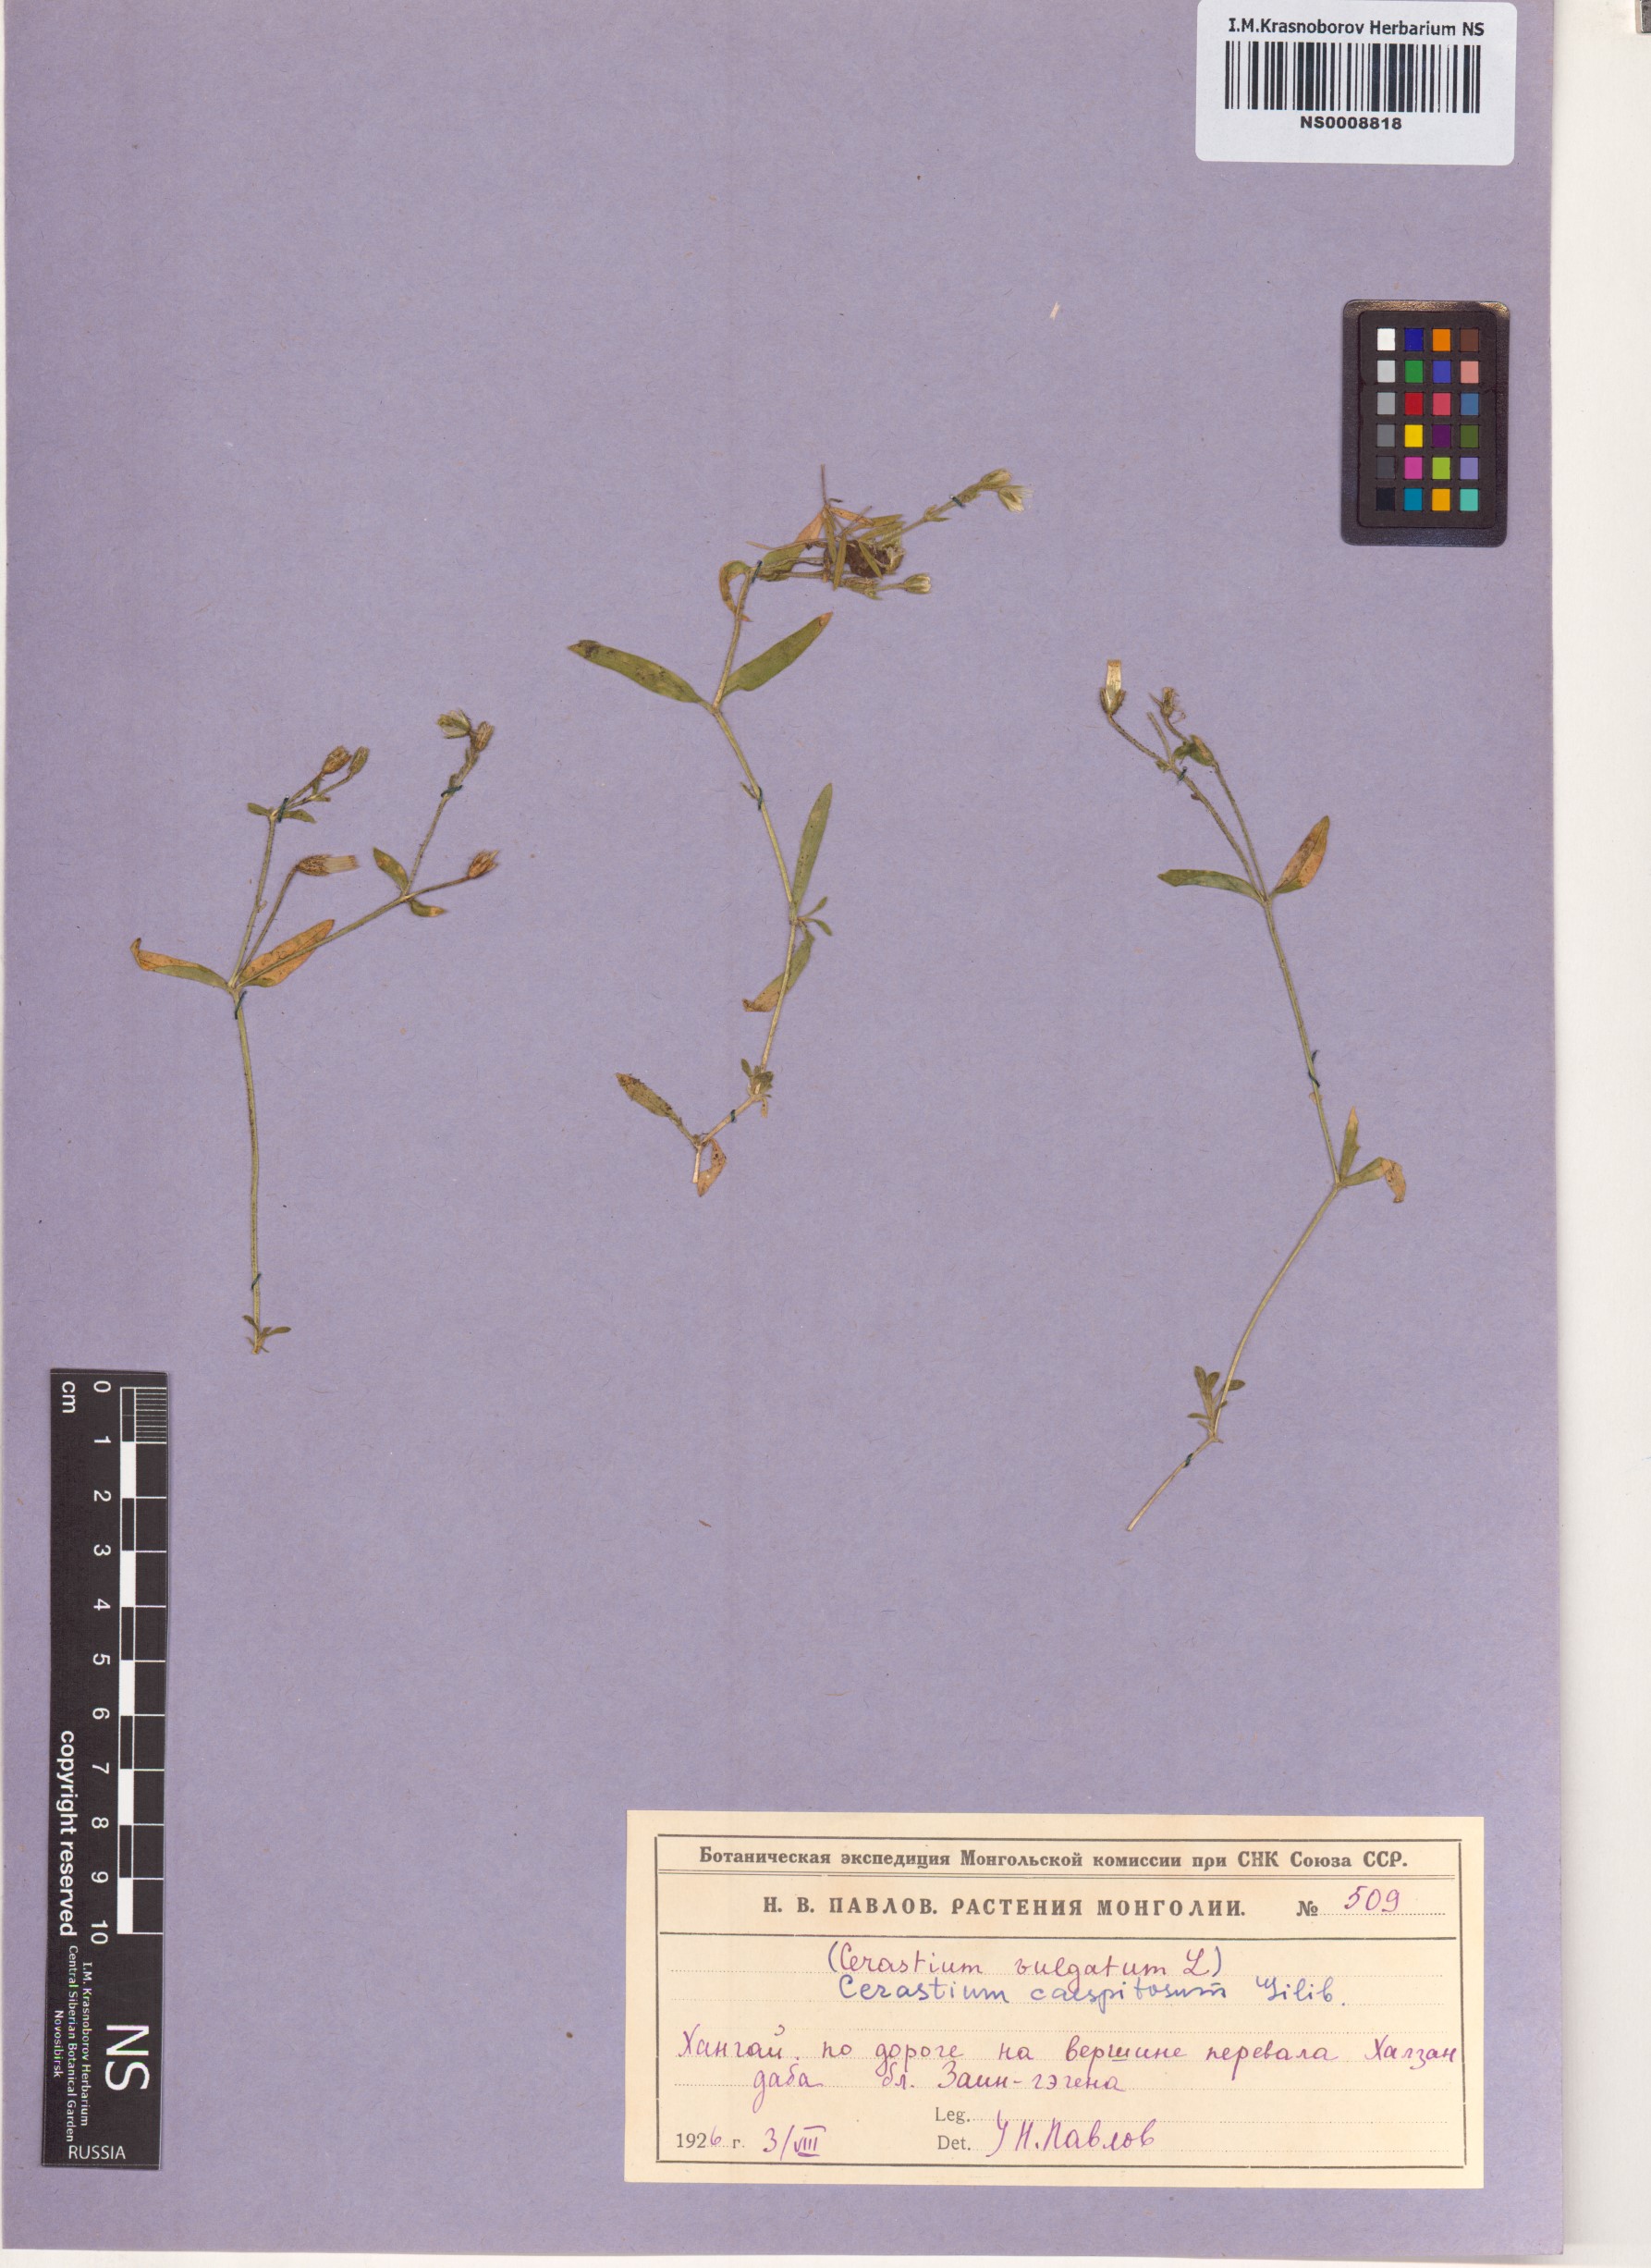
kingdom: Plantae
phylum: Tracheophyta
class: Magnoliopsida
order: Caryophyllales
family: Caryophyllaceae
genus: Cerastium
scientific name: Cerastium
